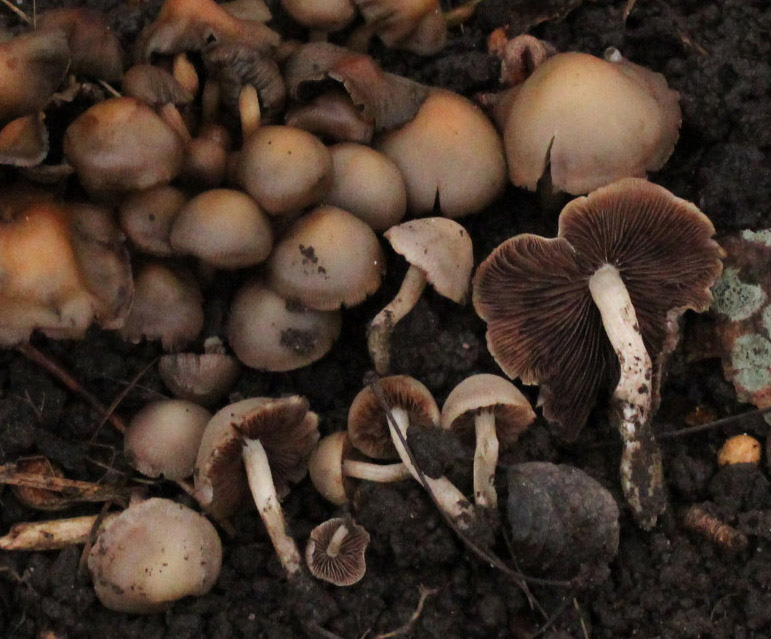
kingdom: Fungi
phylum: Basidiomycota
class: Agaricomycetes
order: Agaricales
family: Psathyrellaceae
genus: Homophron
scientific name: Homophron cernuum
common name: hvidlig mørkhat
